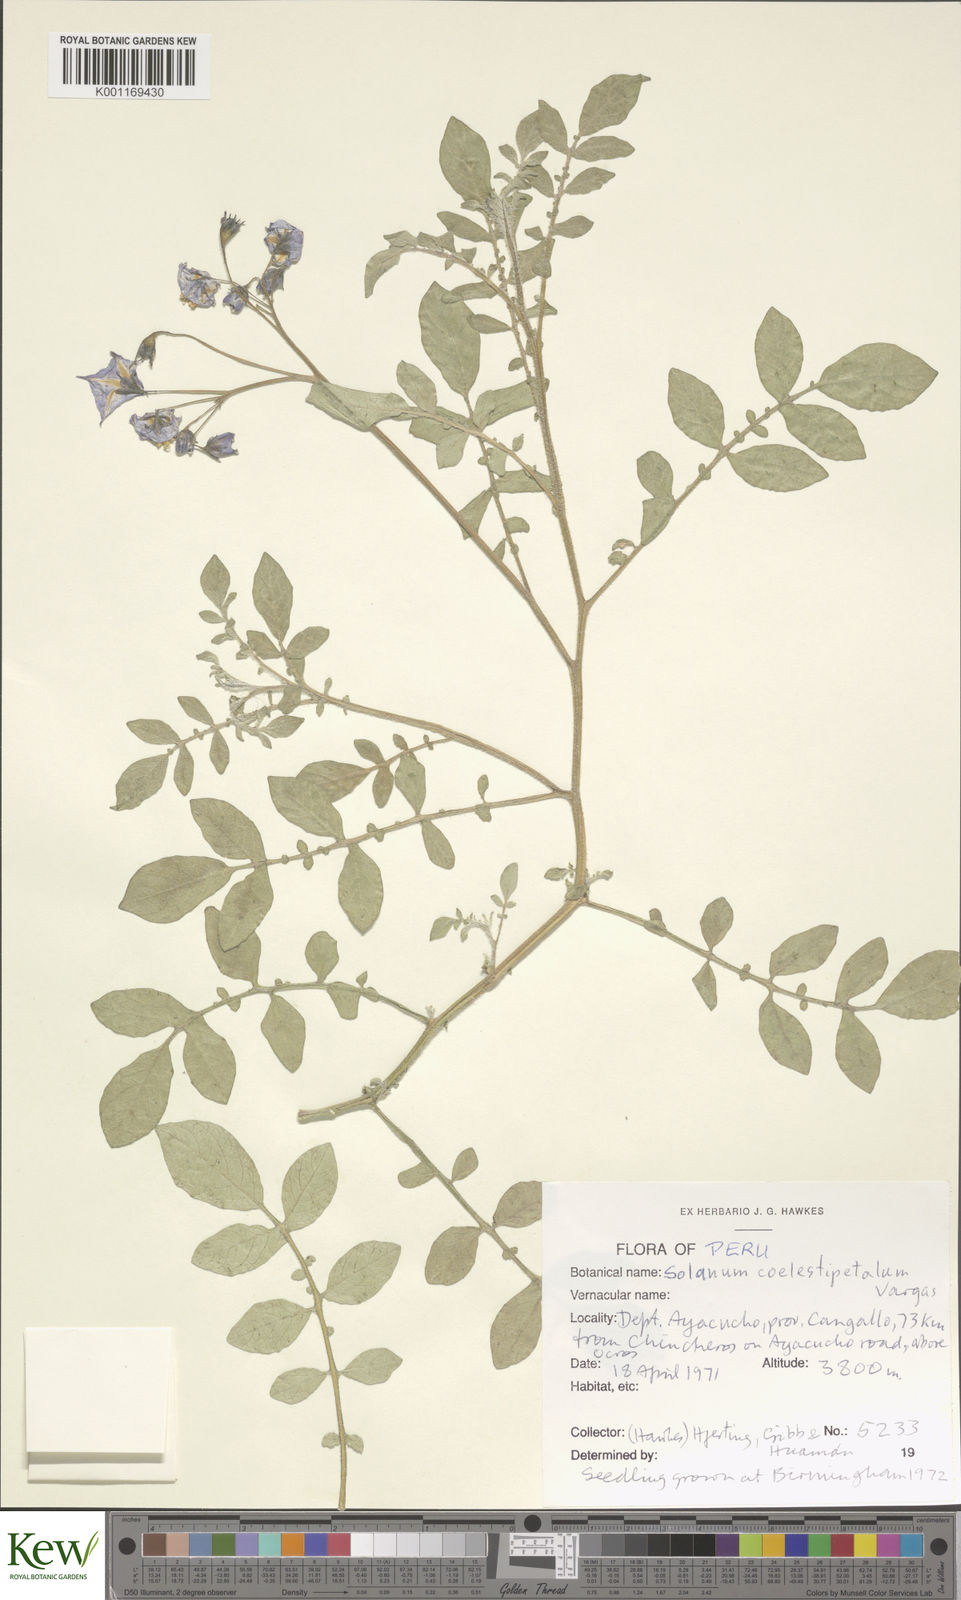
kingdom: Plantae
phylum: Tracheophyta
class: Magnoliopsida
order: Solanales
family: Solanaceae
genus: Solanum
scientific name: Solanum brevicaule
